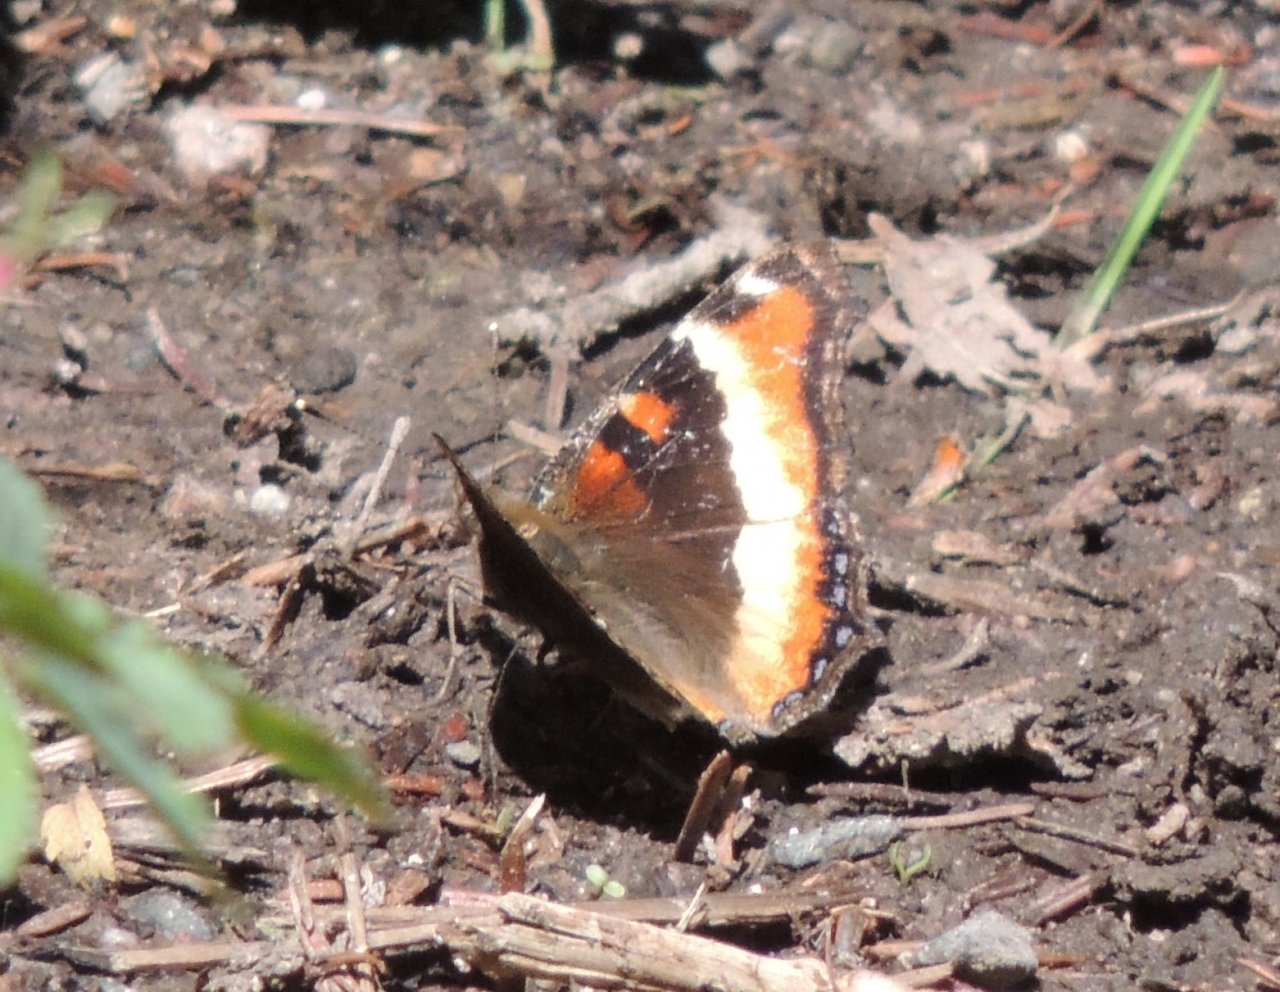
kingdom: Animalia
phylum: Arthropoda
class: Insecta
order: Lepidoptera
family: Nymphalidae
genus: Aglais
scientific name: Aglais milberti
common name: Milbert's Tortoiseshell
